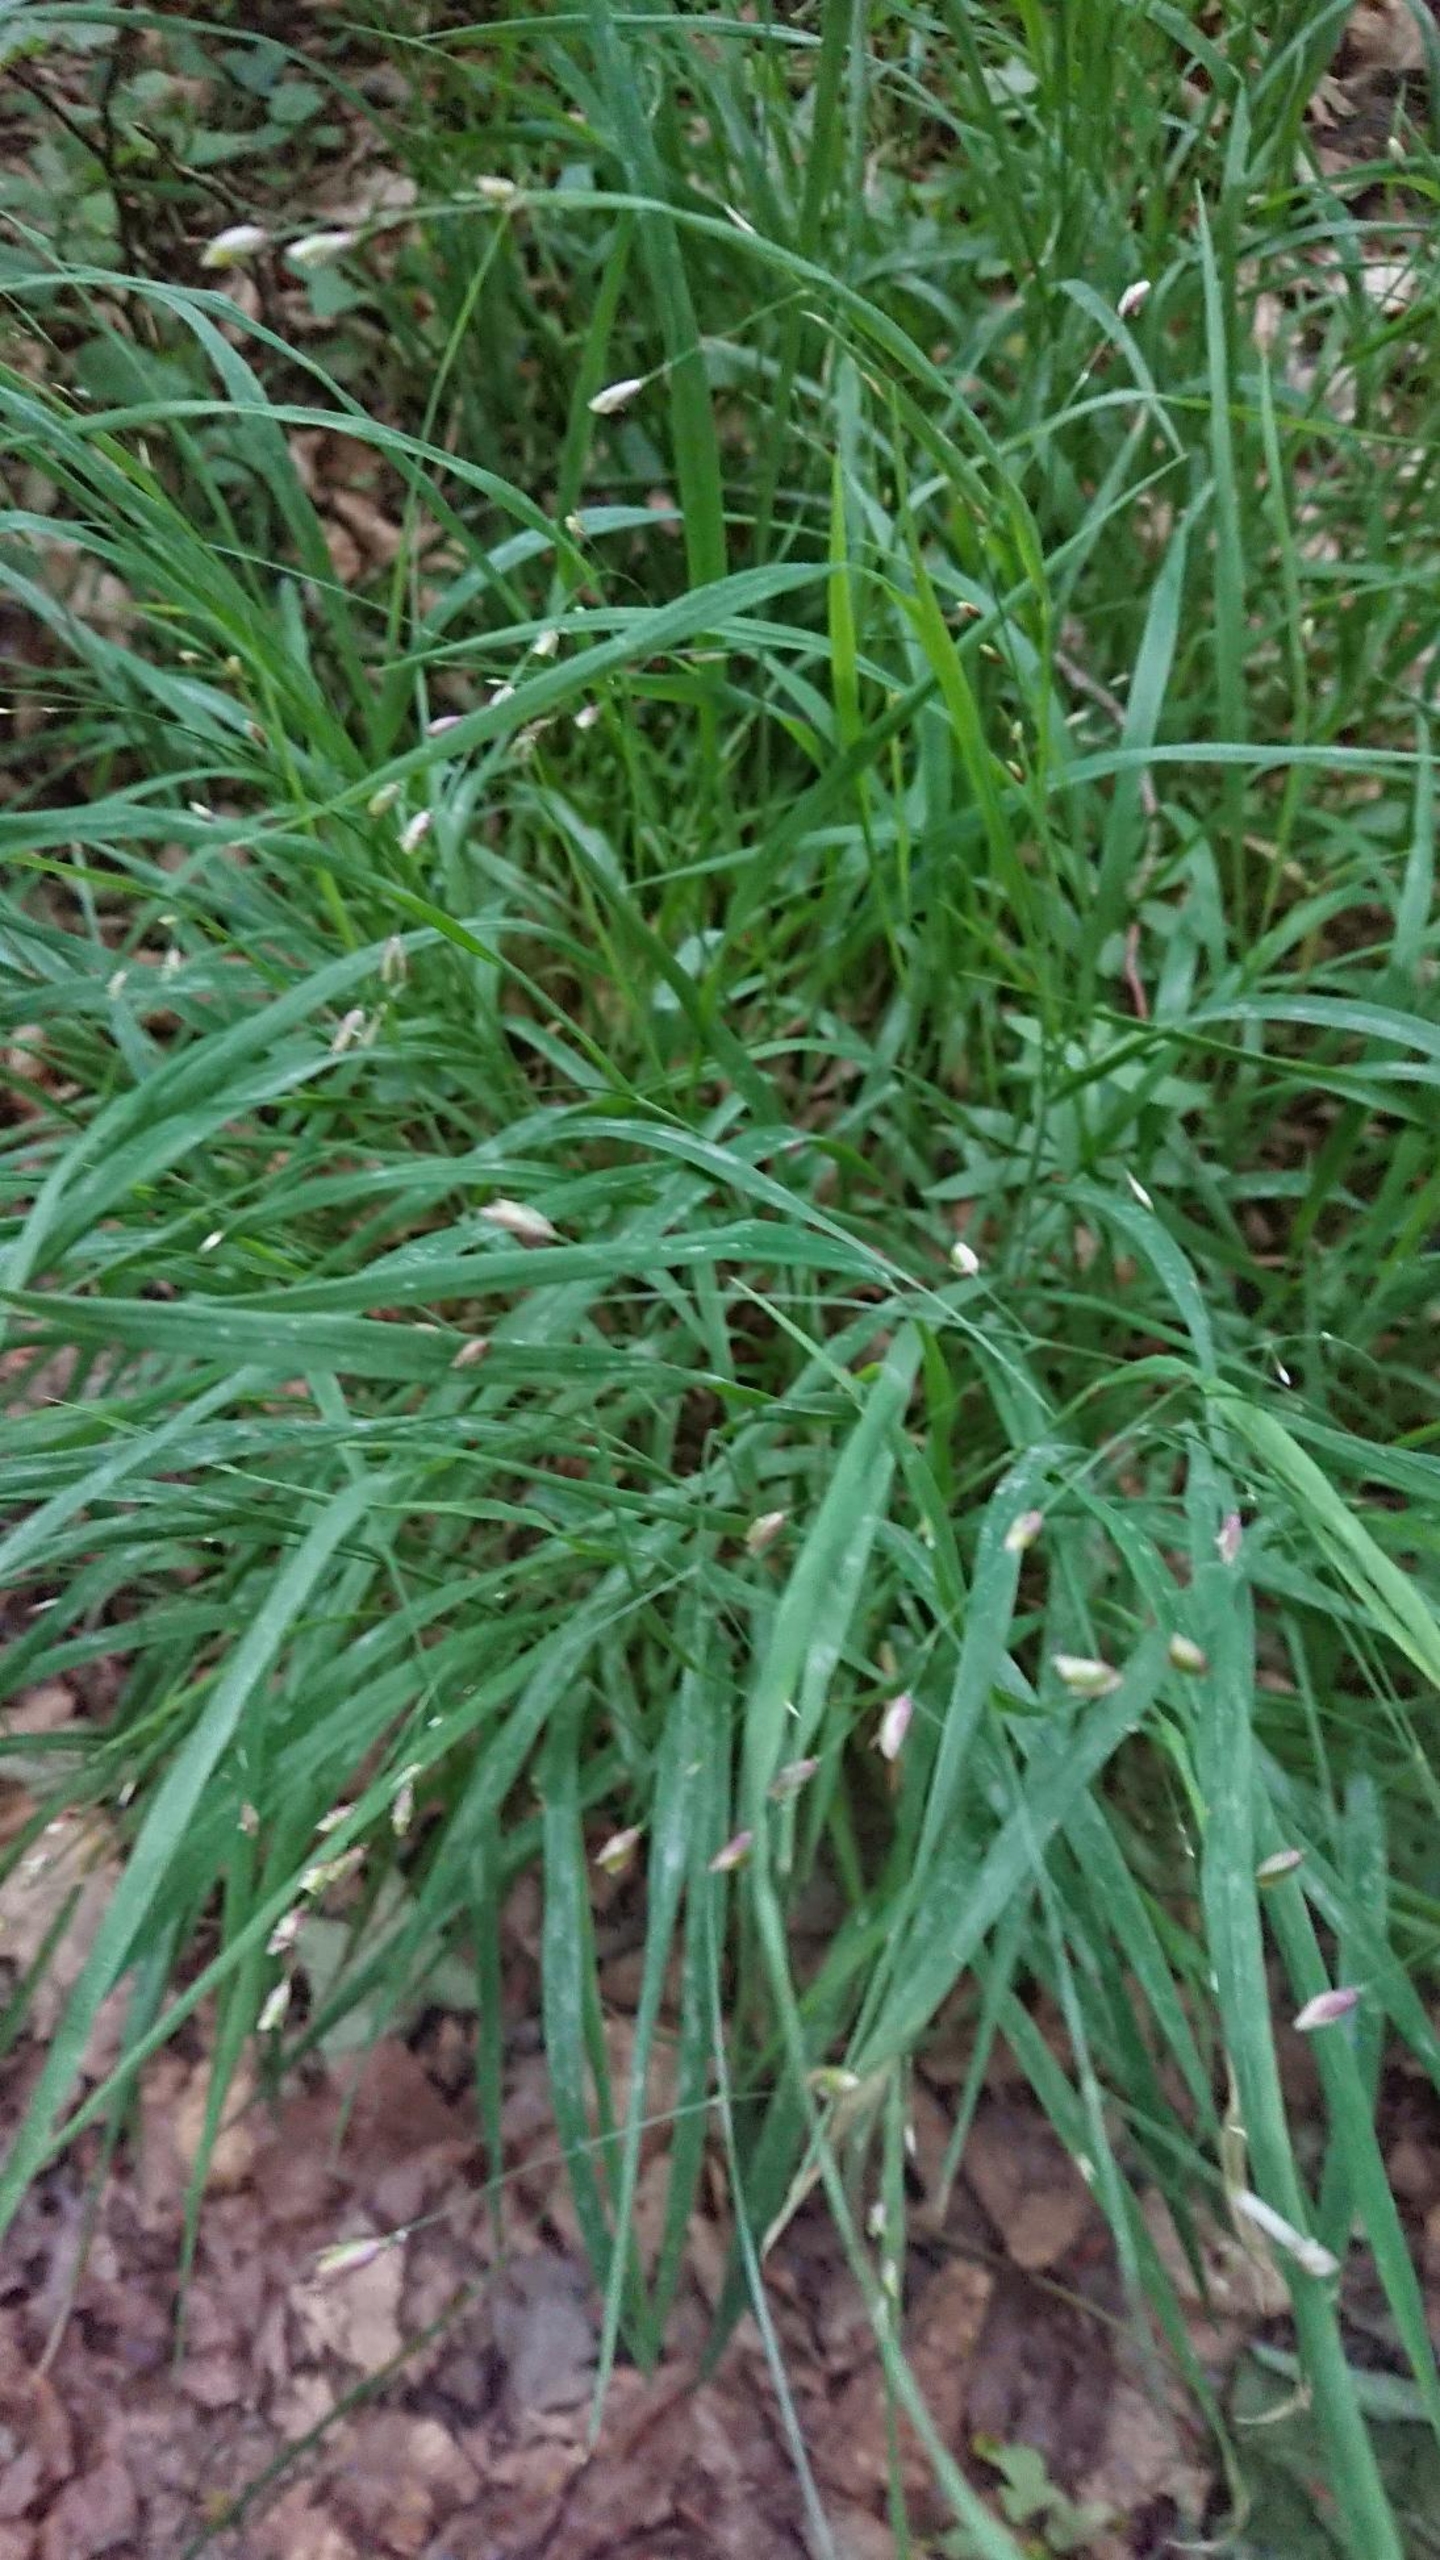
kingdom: Plantae
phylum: Tracheophyta
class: Liliopsida
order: Poales
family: Poaceae
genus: Melica
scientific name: Melica uniflora
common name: Enblomstret flitteraks
